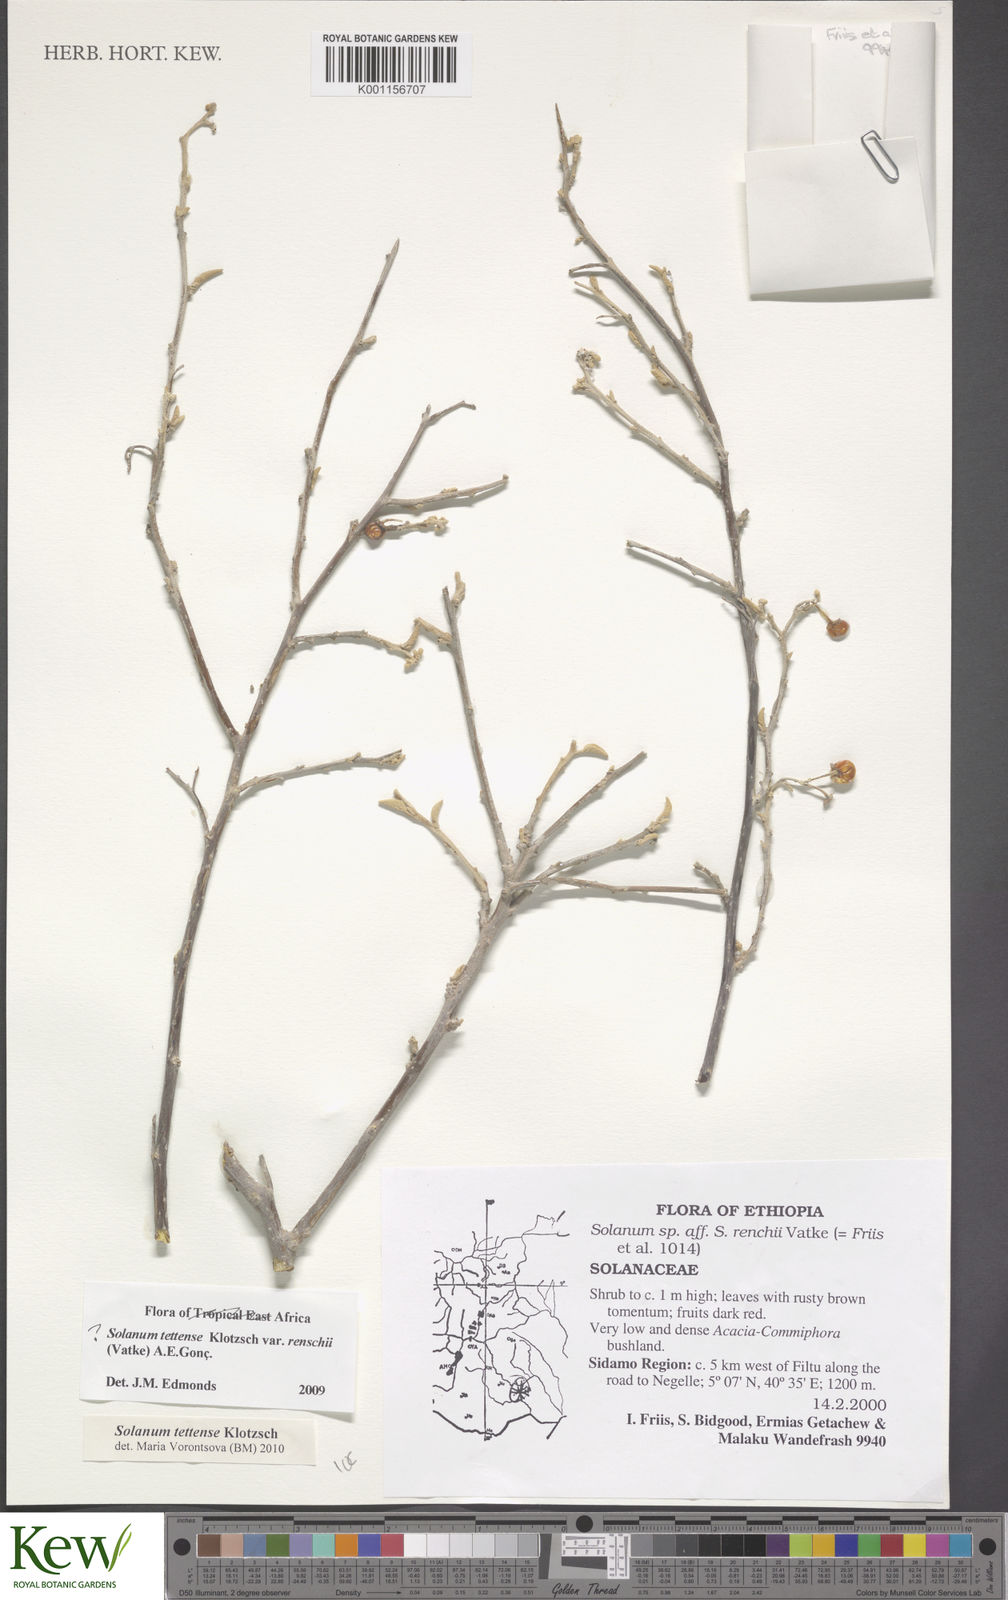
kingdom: Plantae
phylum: Tracheophyta
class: Magnoliopsida
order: Solanales
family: Solanaceae
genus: Solanum
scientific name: Solanum tettense
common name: Mozambique bitter apple
